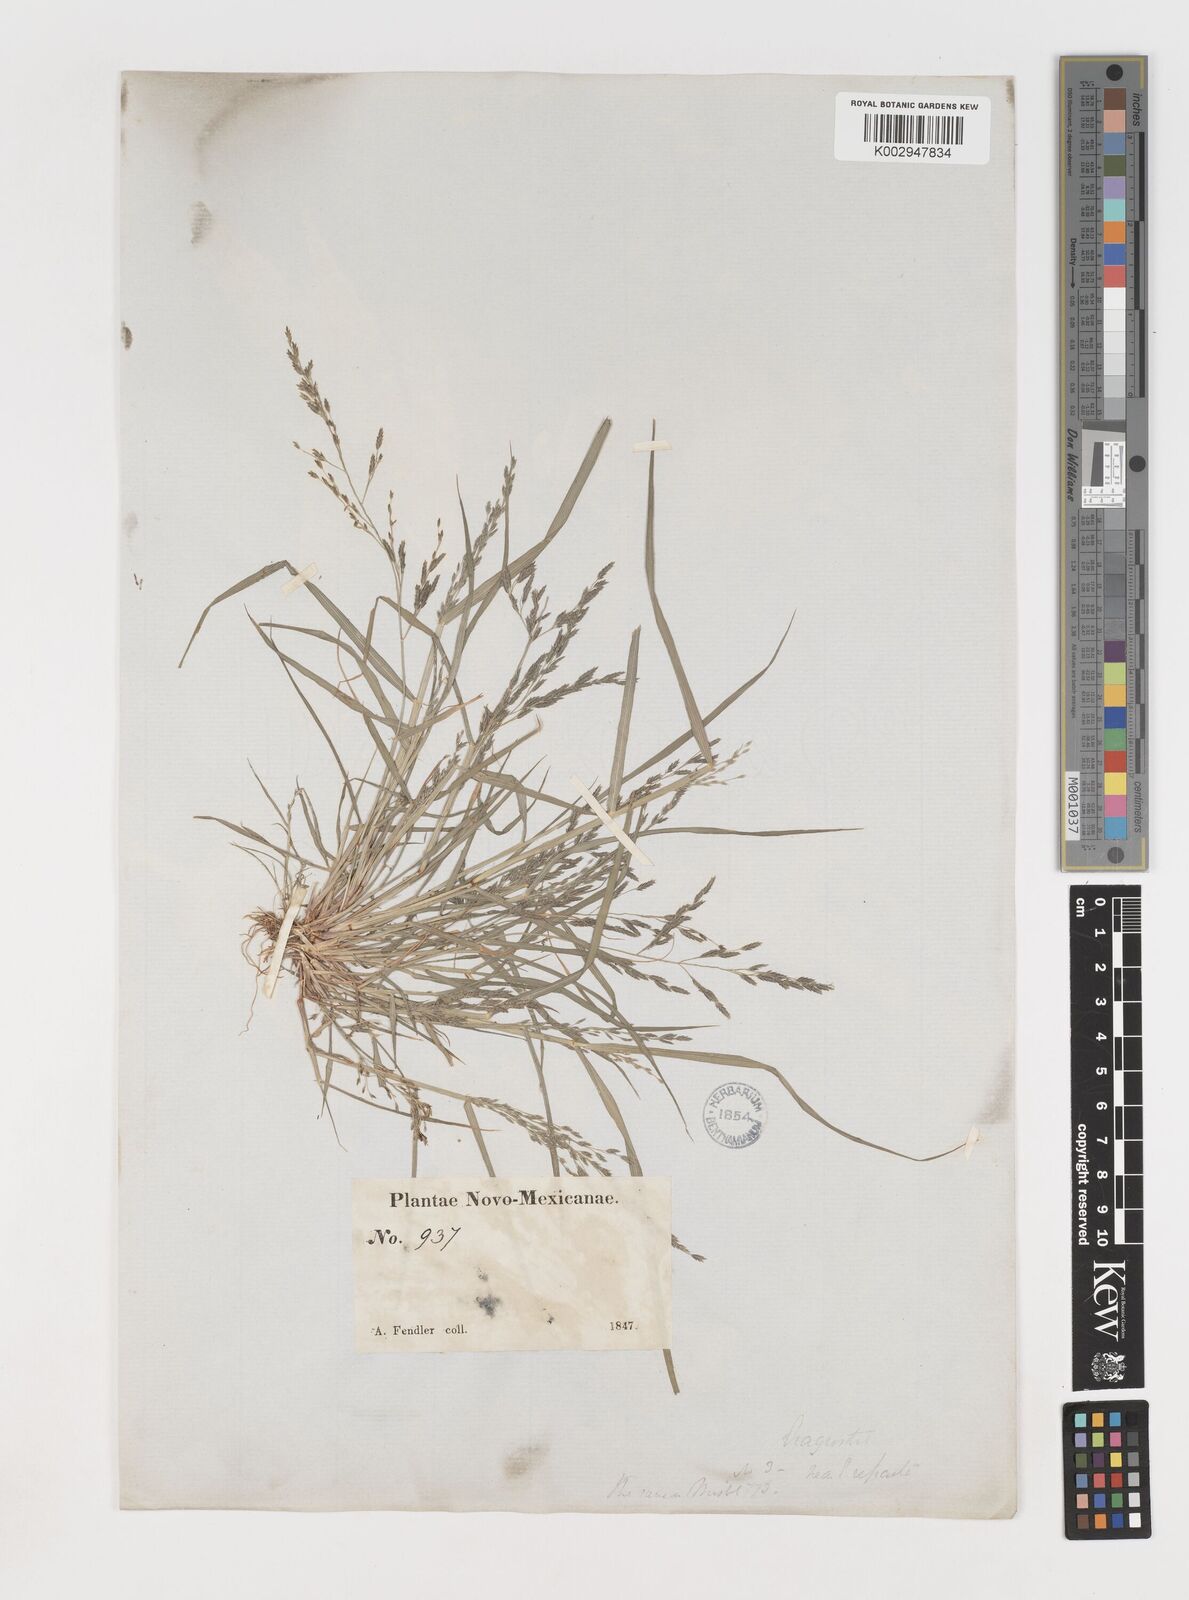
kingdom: Plantae
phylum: Tracheophyta
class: Liliopsida
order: Poales
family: Poaceae
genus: Eragrostis
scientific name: Eragrostis pectinacea
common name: Tufted lovegrass
